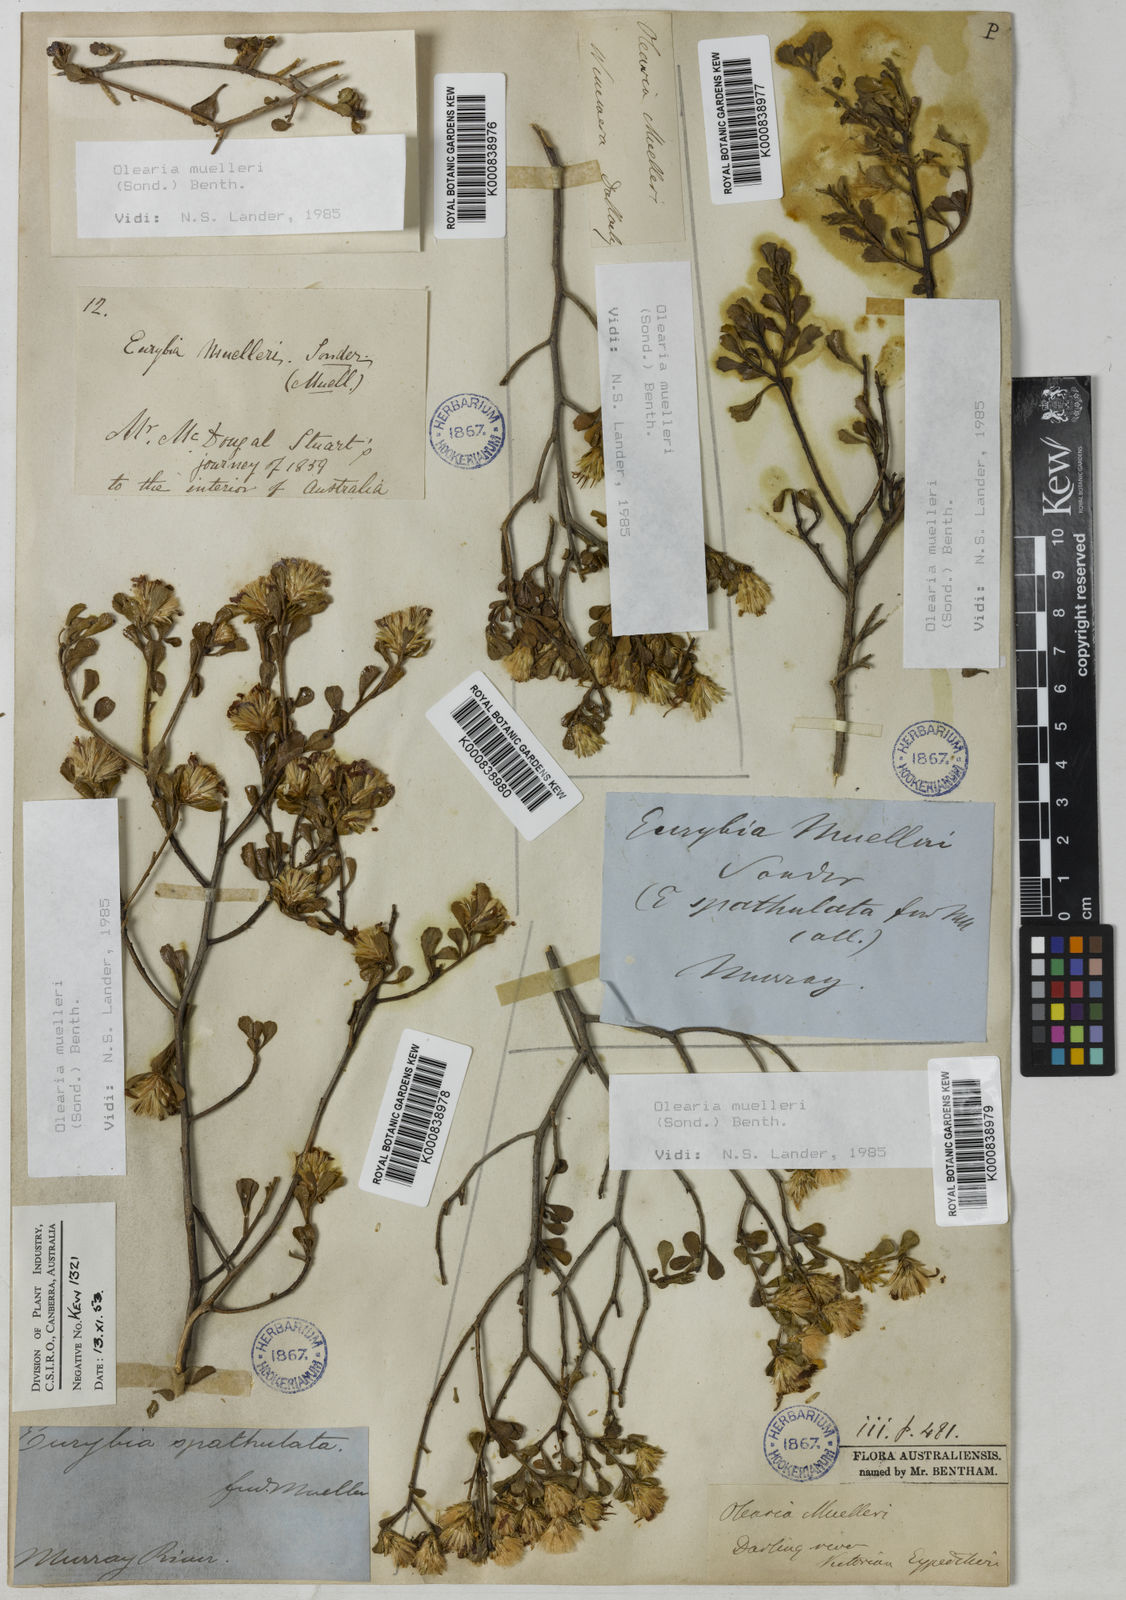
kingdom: Plantae
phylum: Tracheophyta
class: Magnoliopsida
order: Asterales
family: Asteraceae
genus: Walsholaria
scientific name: Walsholaria muelleri
